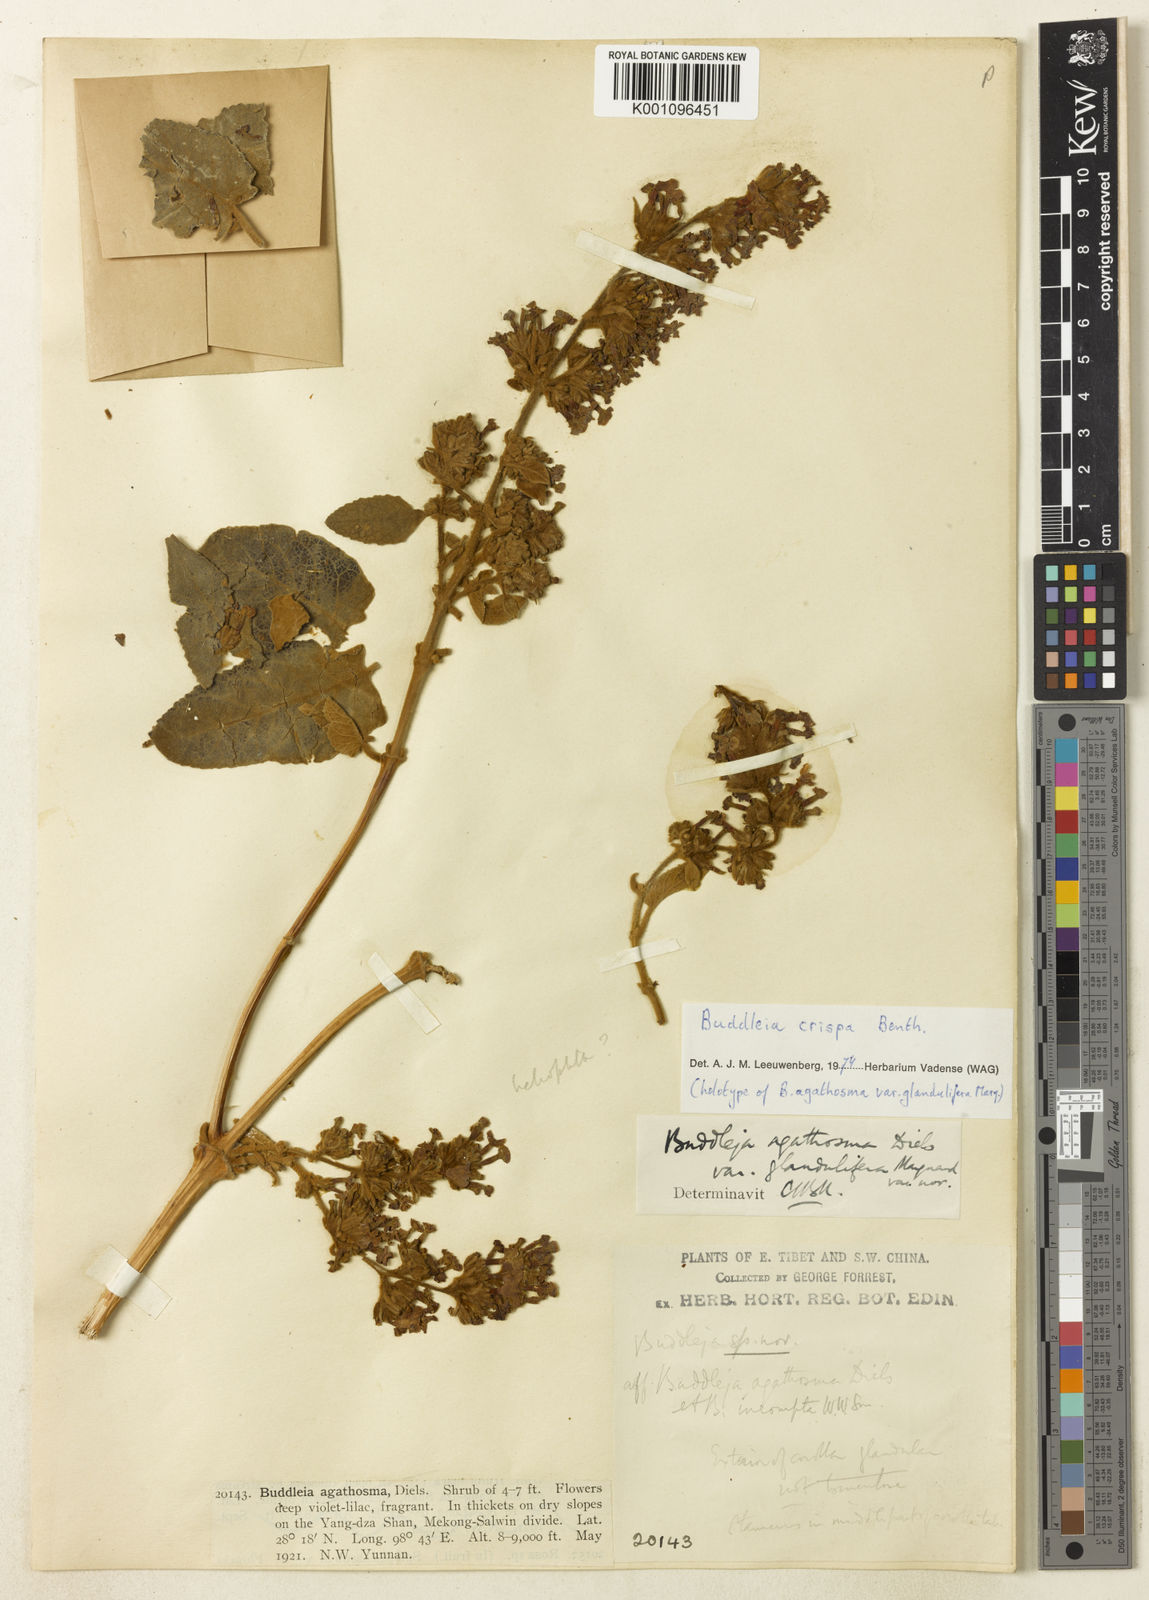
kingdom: Plantae
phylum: Tracheophyta
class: Magnoliopsida
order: Lamiales
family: Scrophulariaceae
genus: Buddleja
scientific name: Buddleja crispa
